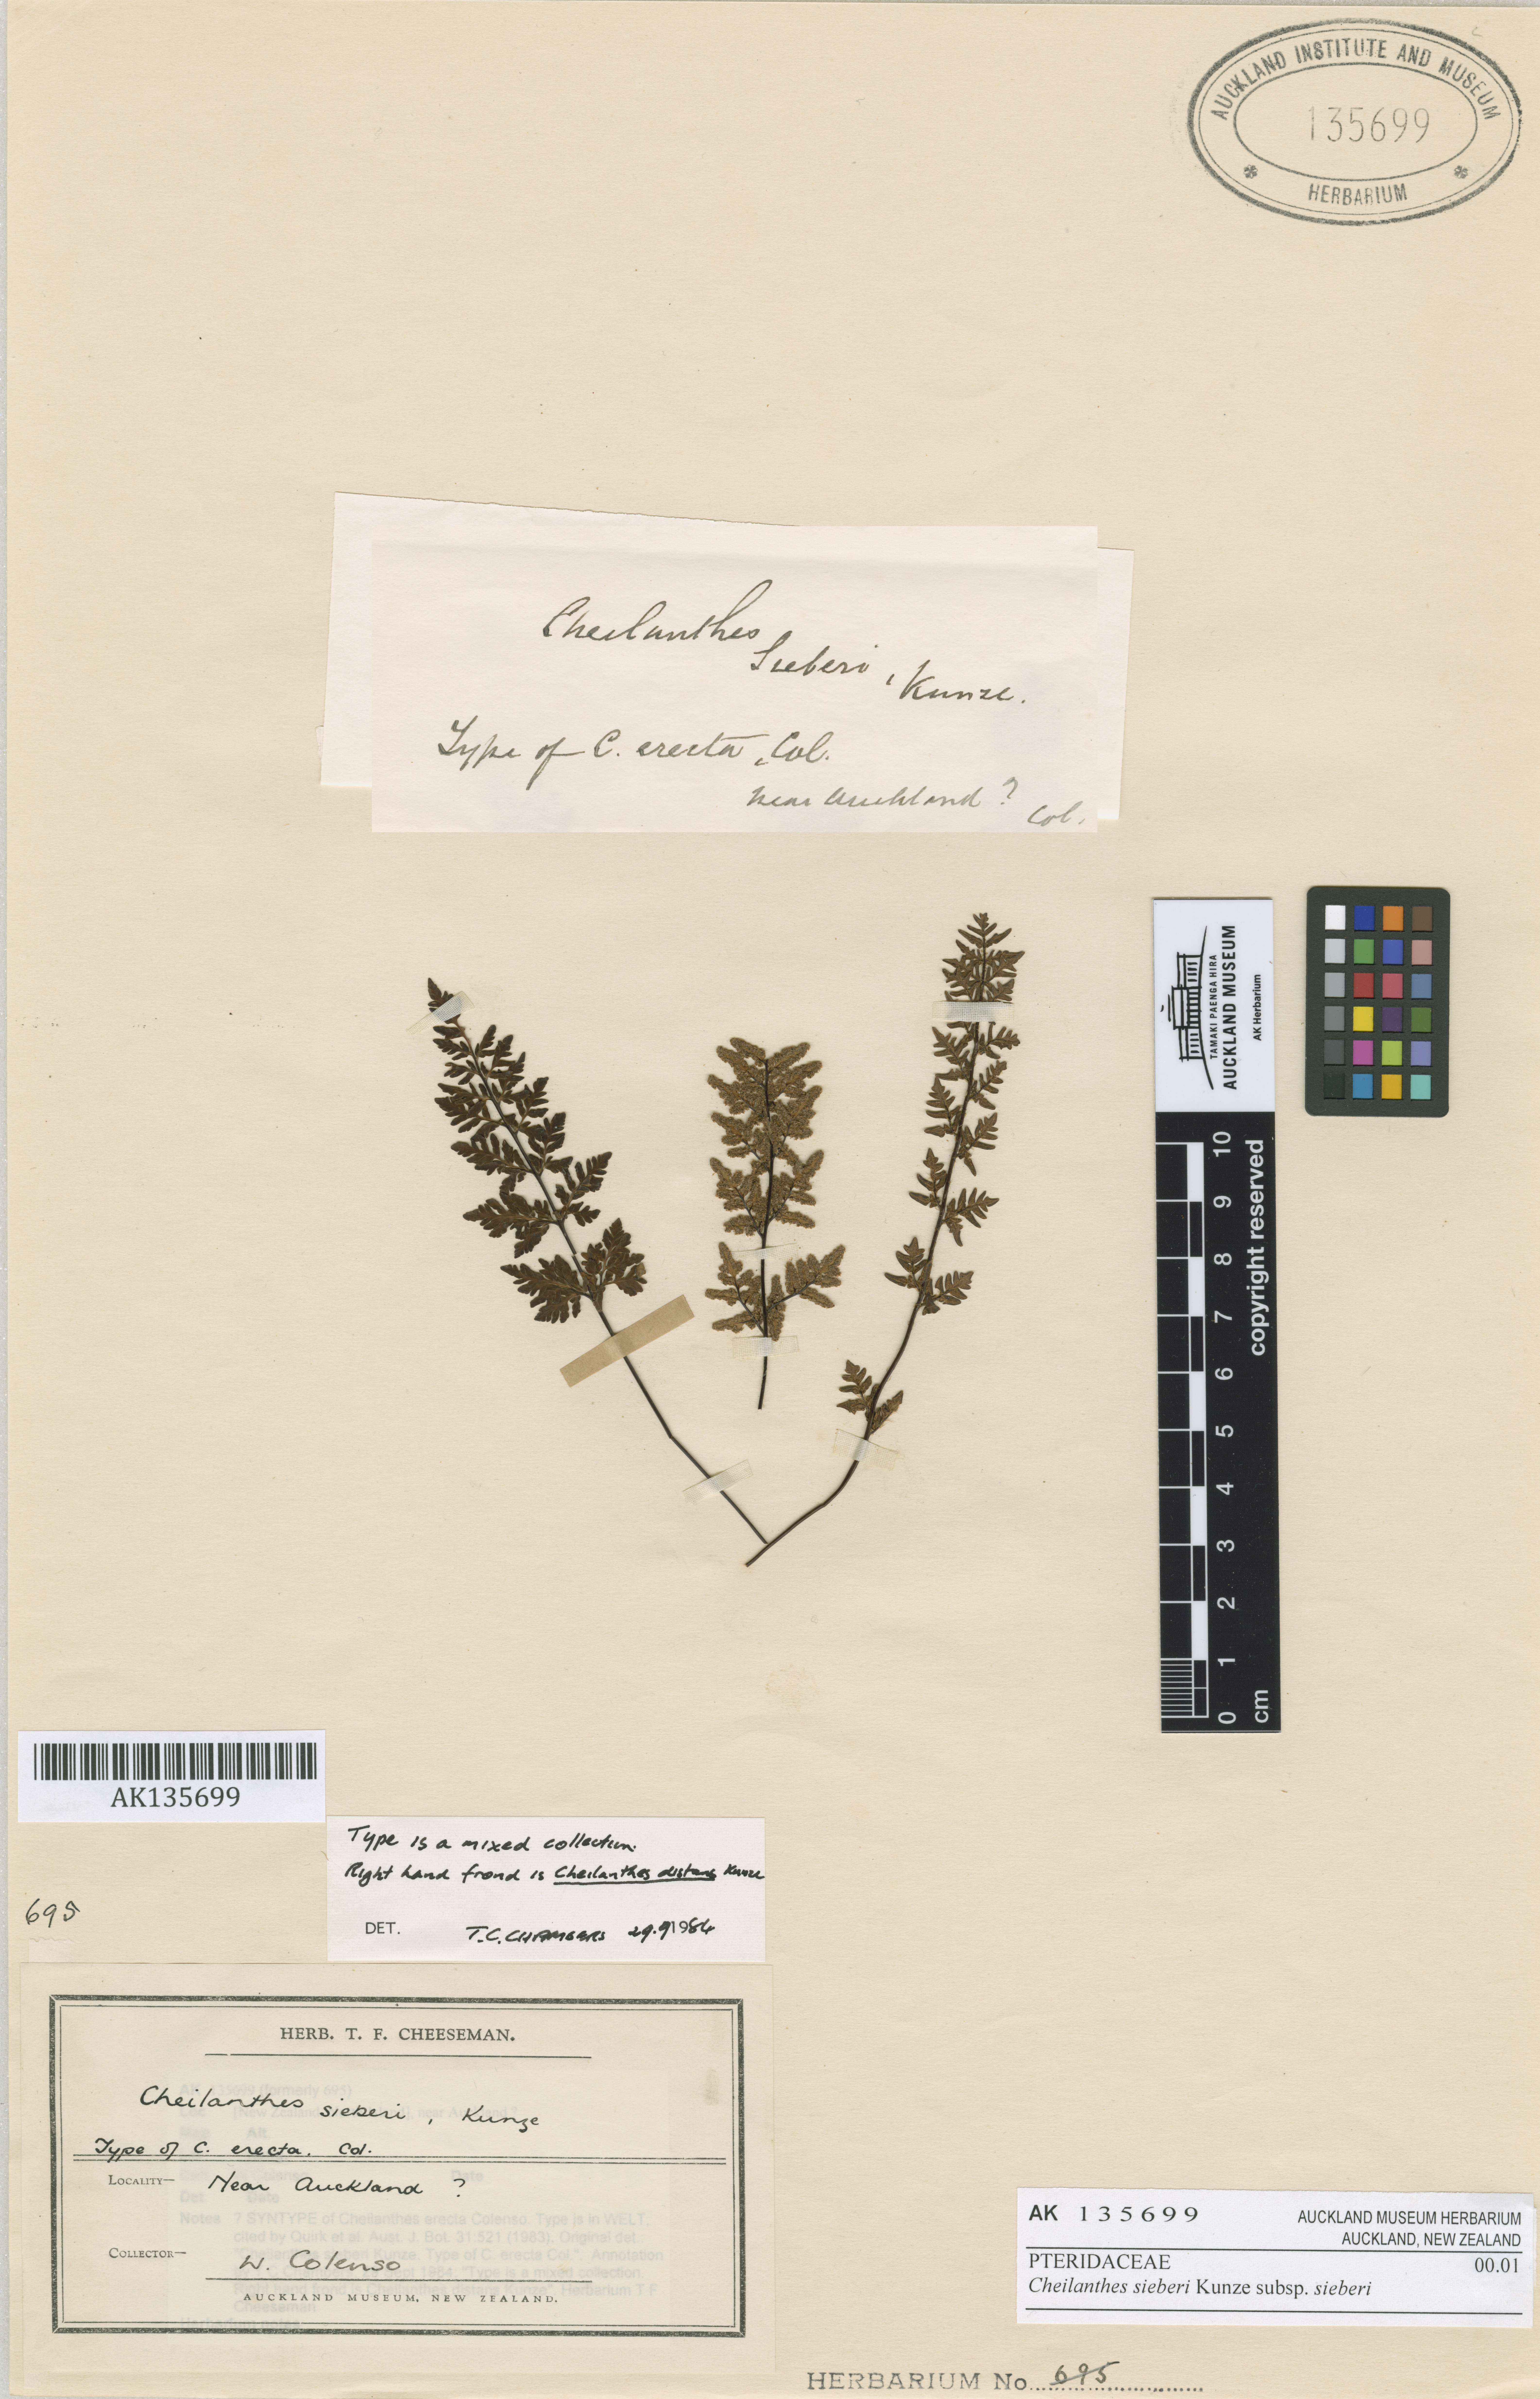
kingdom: Plantae
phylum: Tracheophyta
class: Polypodiopsida
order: Polypodiales
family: Pteridaceae
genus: Cheilanthes
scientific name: Cheilanthes sieberi
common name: Mulga fern
